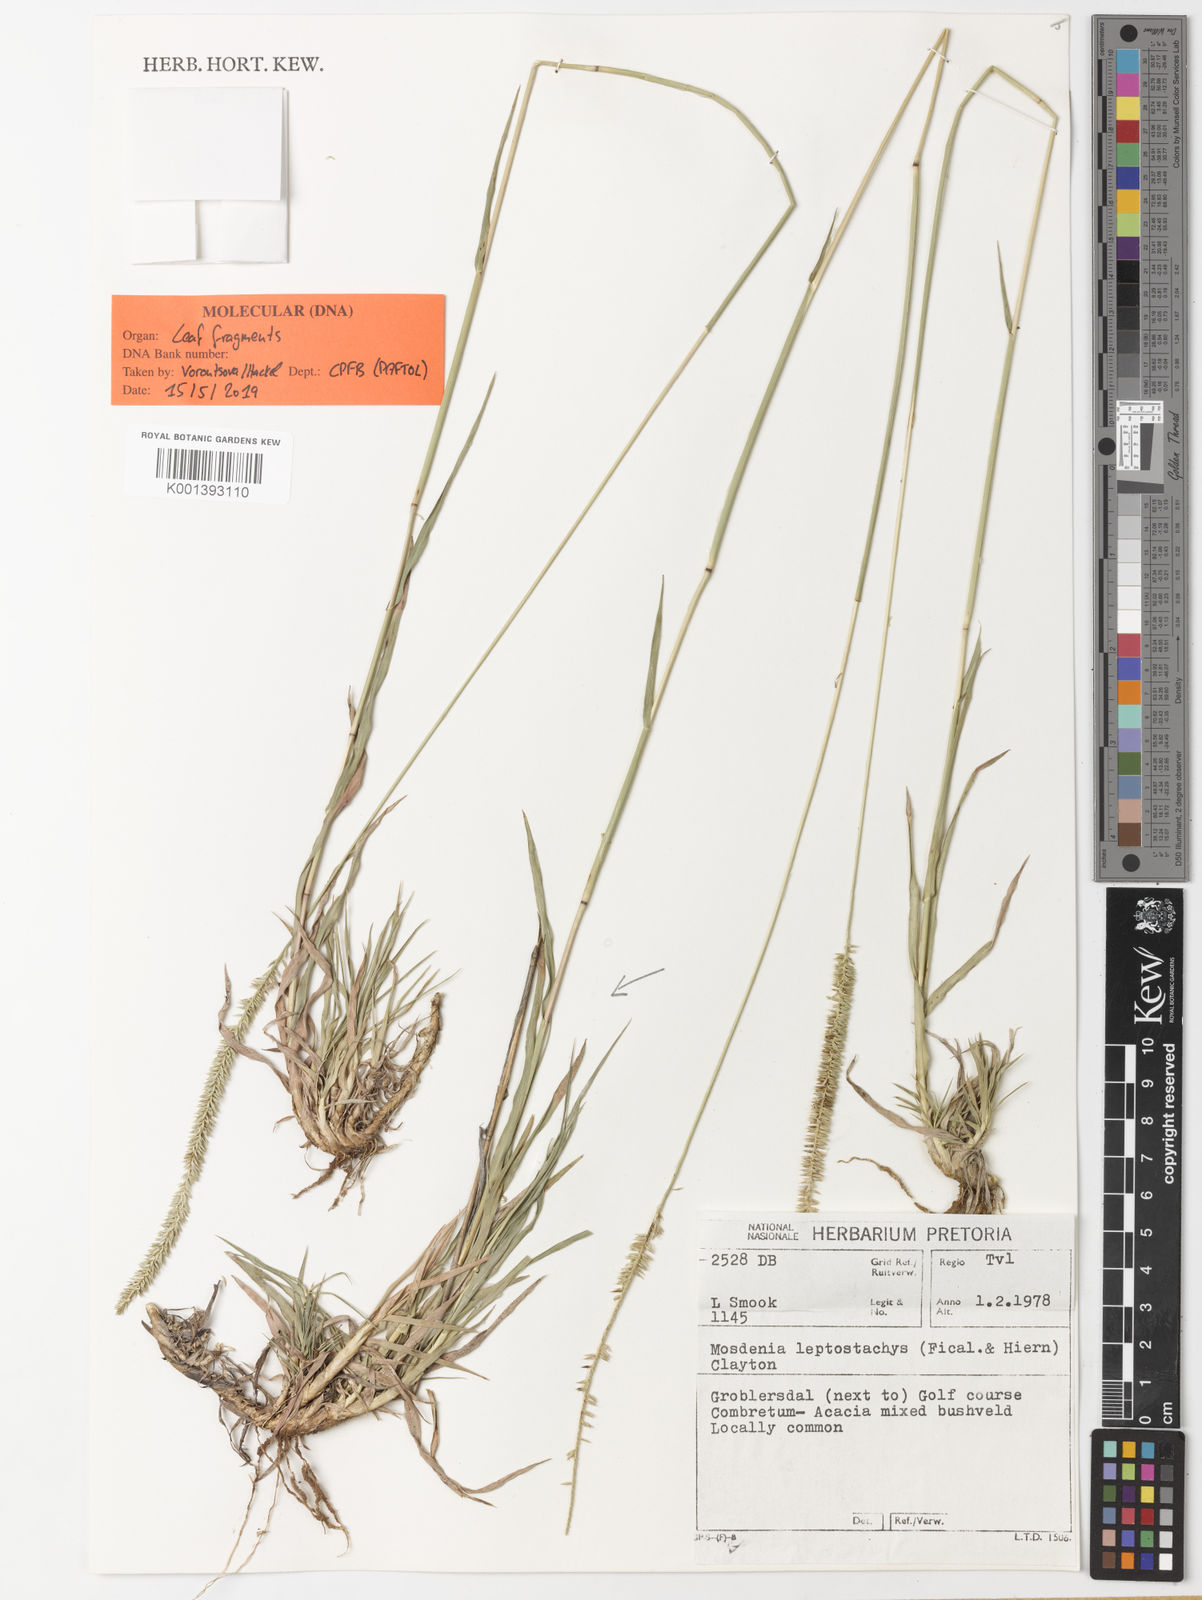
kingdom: Plantae
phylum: Tracheophyta
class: Liliopsida
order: Poales
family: Poaceae
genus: Mosdenia
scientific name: Mosdenia leptostachys
